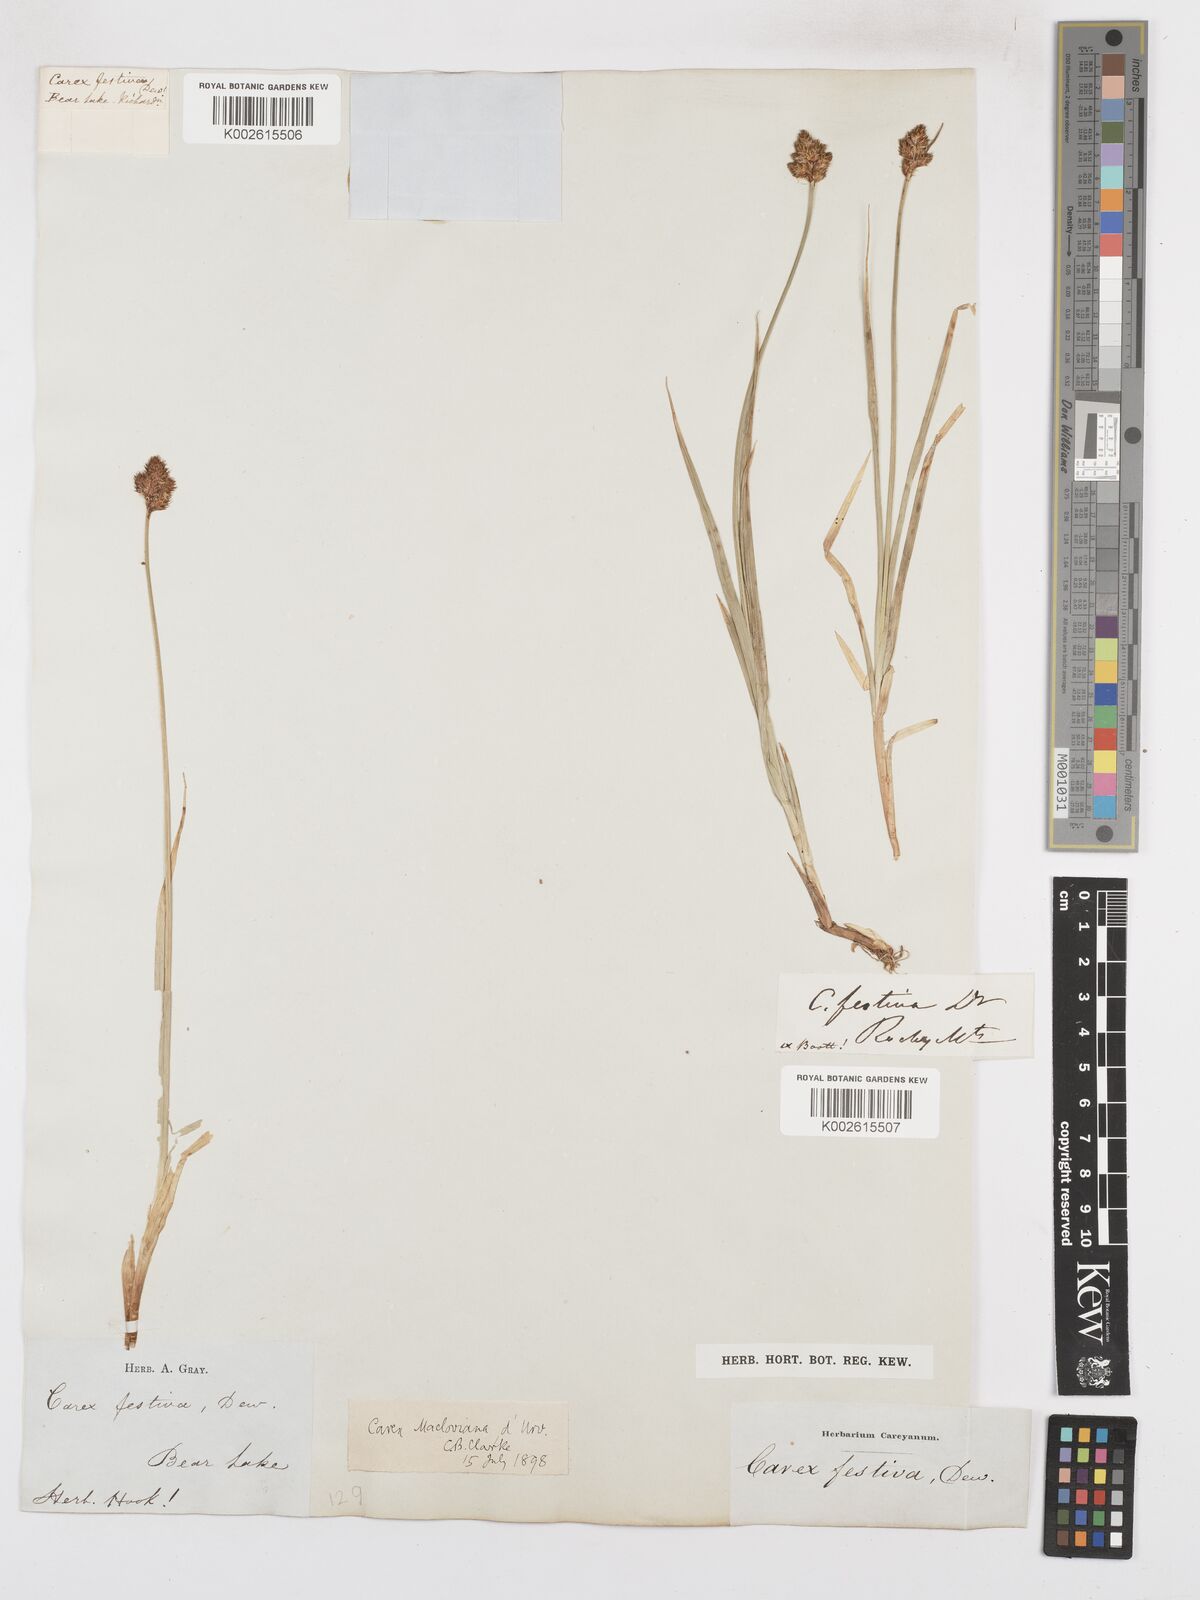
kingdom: Plantae
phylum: Tracheophyta
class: Liliopsida
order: Poales
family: Cyperaceae
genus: Carex
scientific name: Carex macloviana
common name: Falkland island sedge
